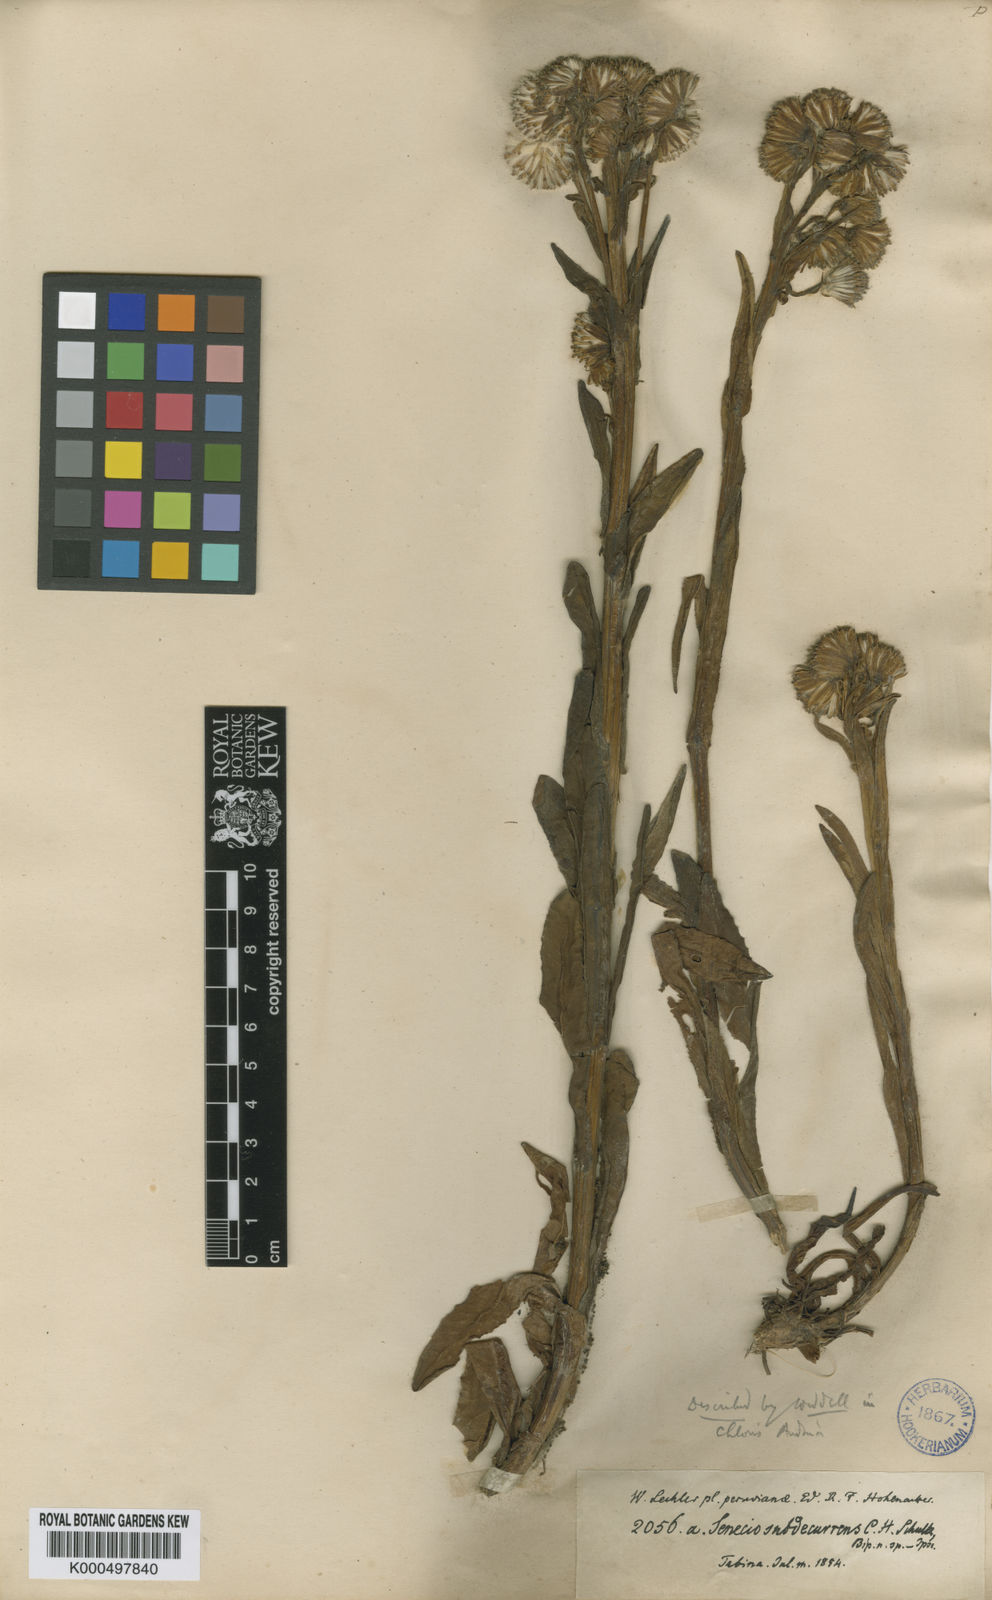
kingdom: Plantae
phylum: Tracheophyta
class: Magnoliopsida
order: Asterales
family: Asteraceae
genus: Senecio
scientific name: Senecio tephrosioides
